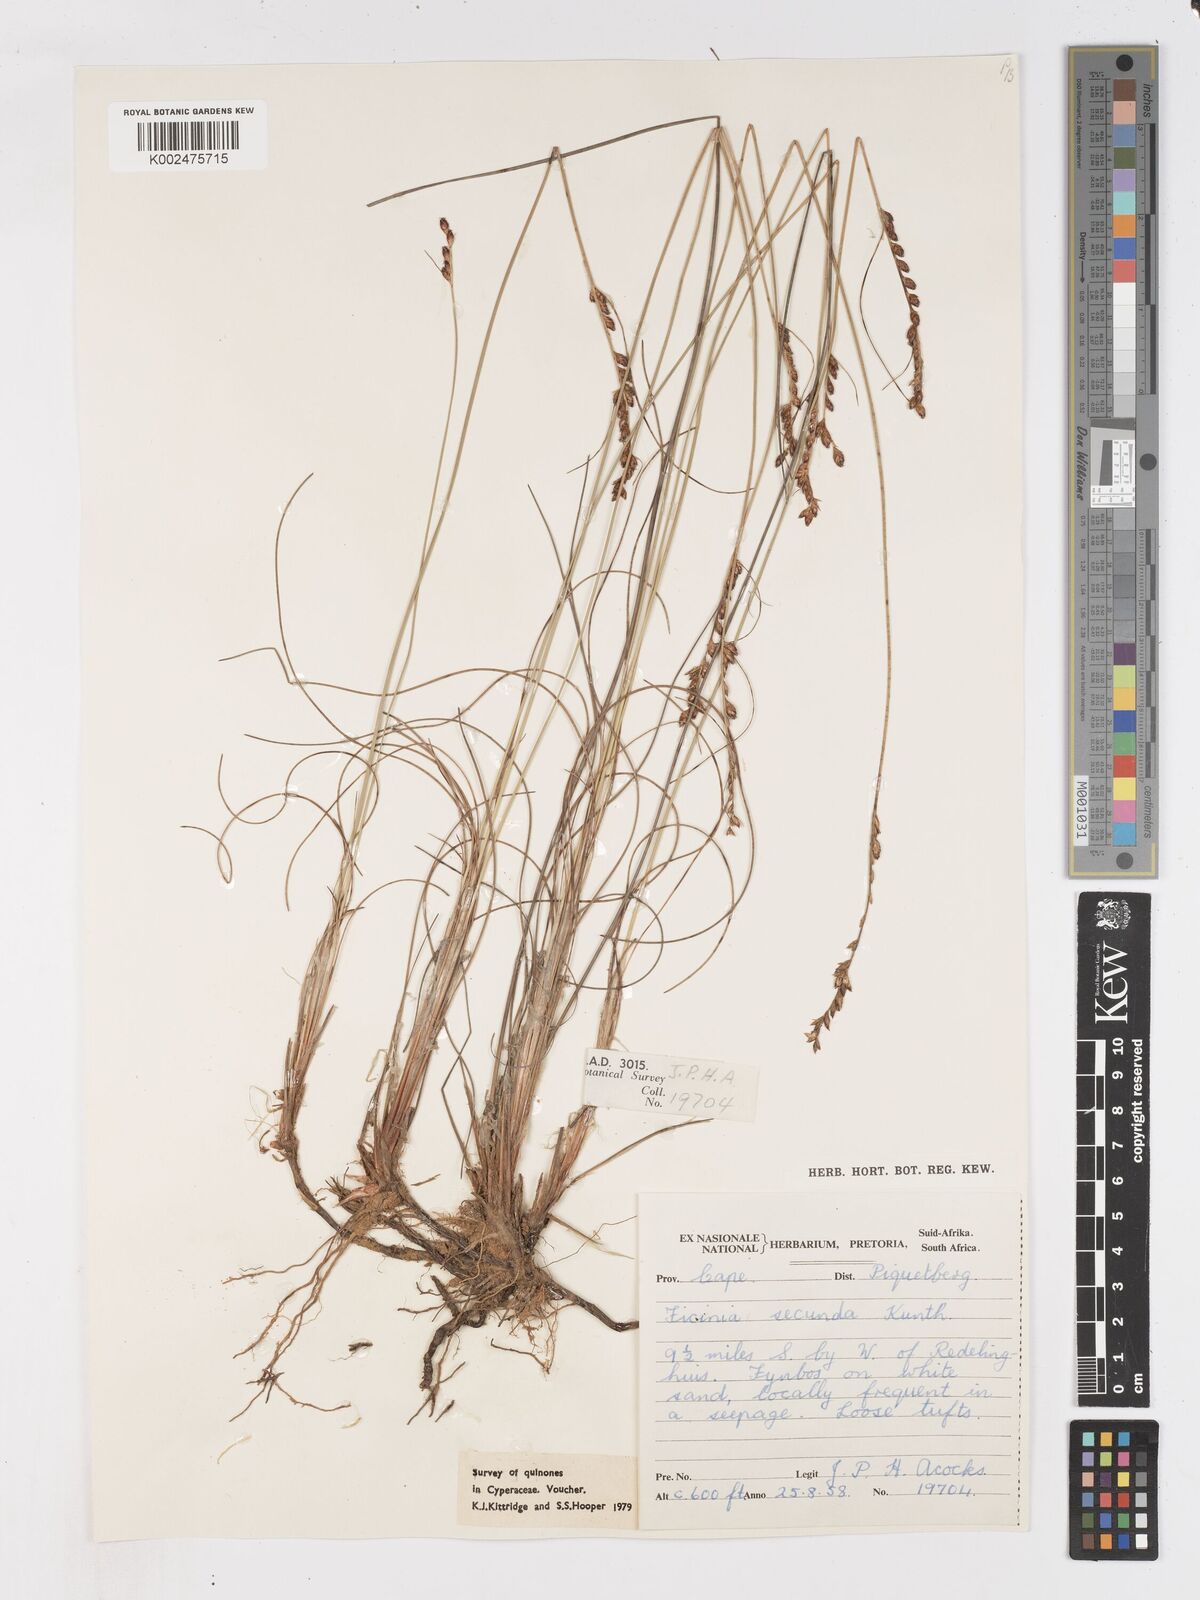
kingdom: Plantae
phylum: Tracheophyta
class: Liliopsida
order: Poales
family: Cyperaceae
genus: Ficinia
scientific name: Ficinia secunda
